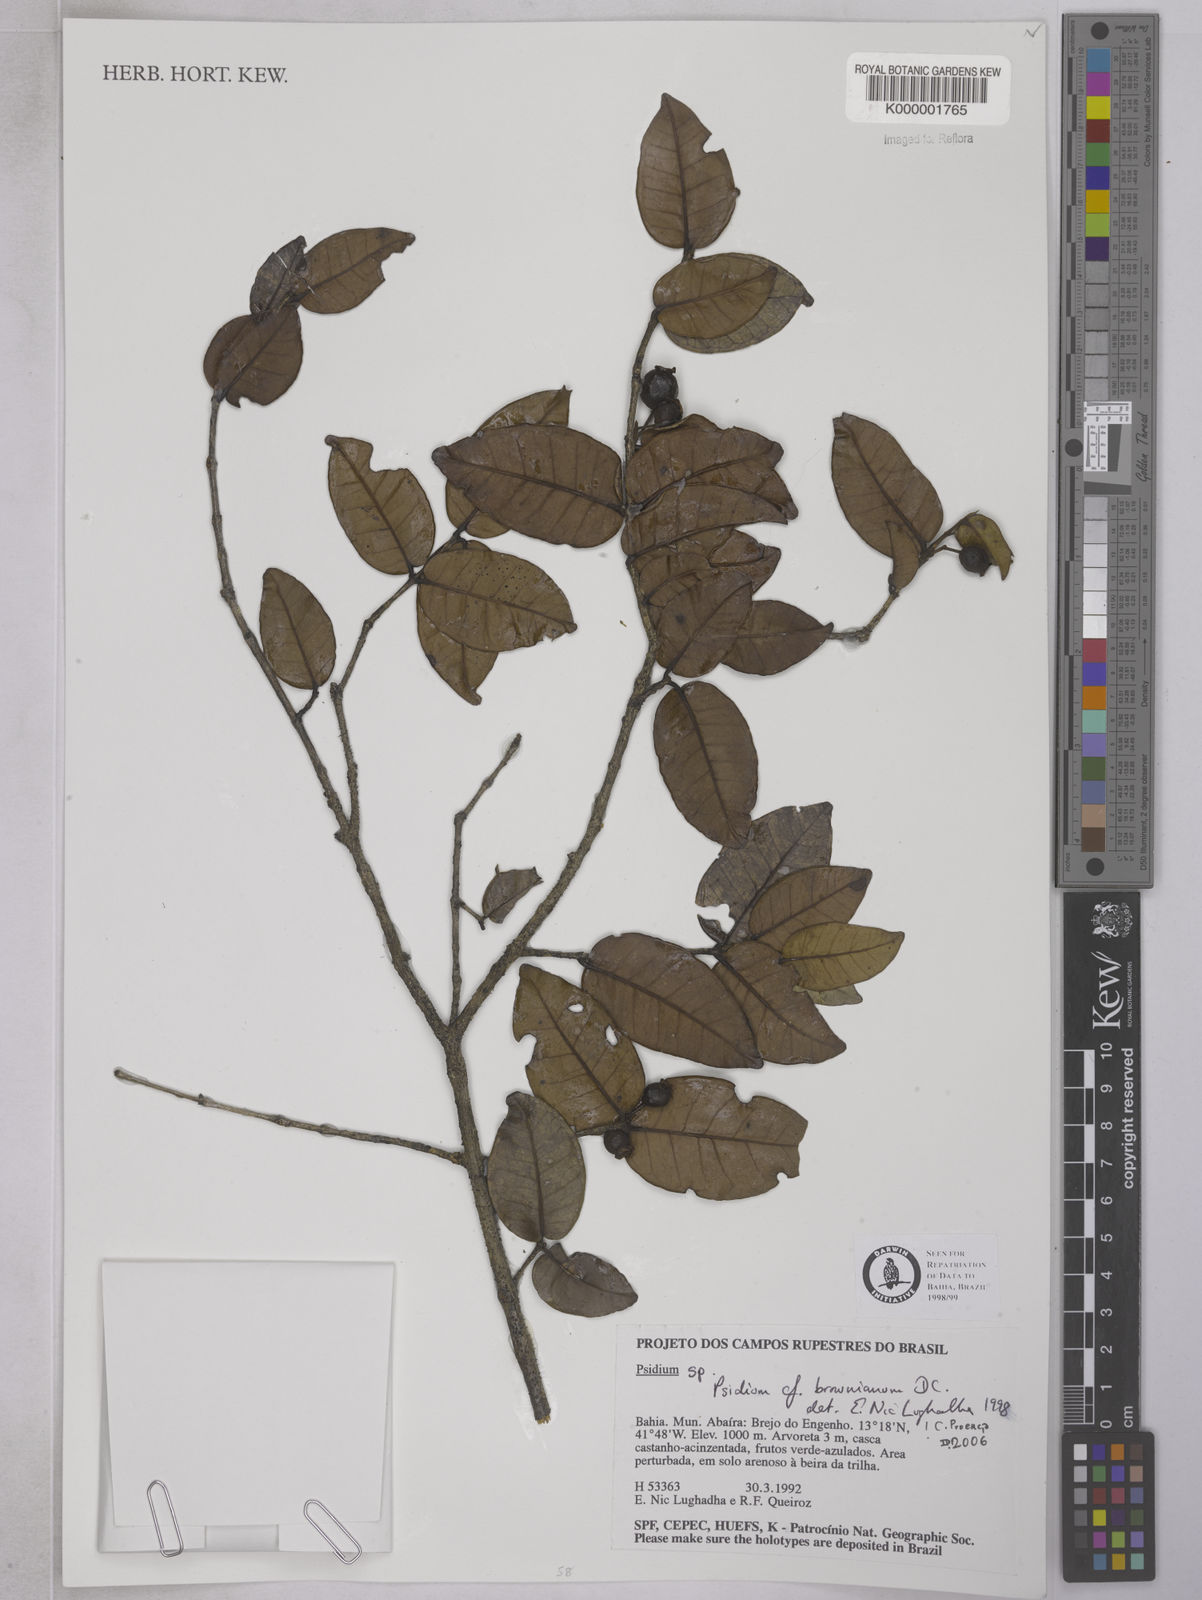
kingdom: Plantae
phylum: Tracheophyta
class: Magnoliopsida
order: Myrtales
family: Myrtaceae
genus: Psidium
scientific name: Psidium brownianum
